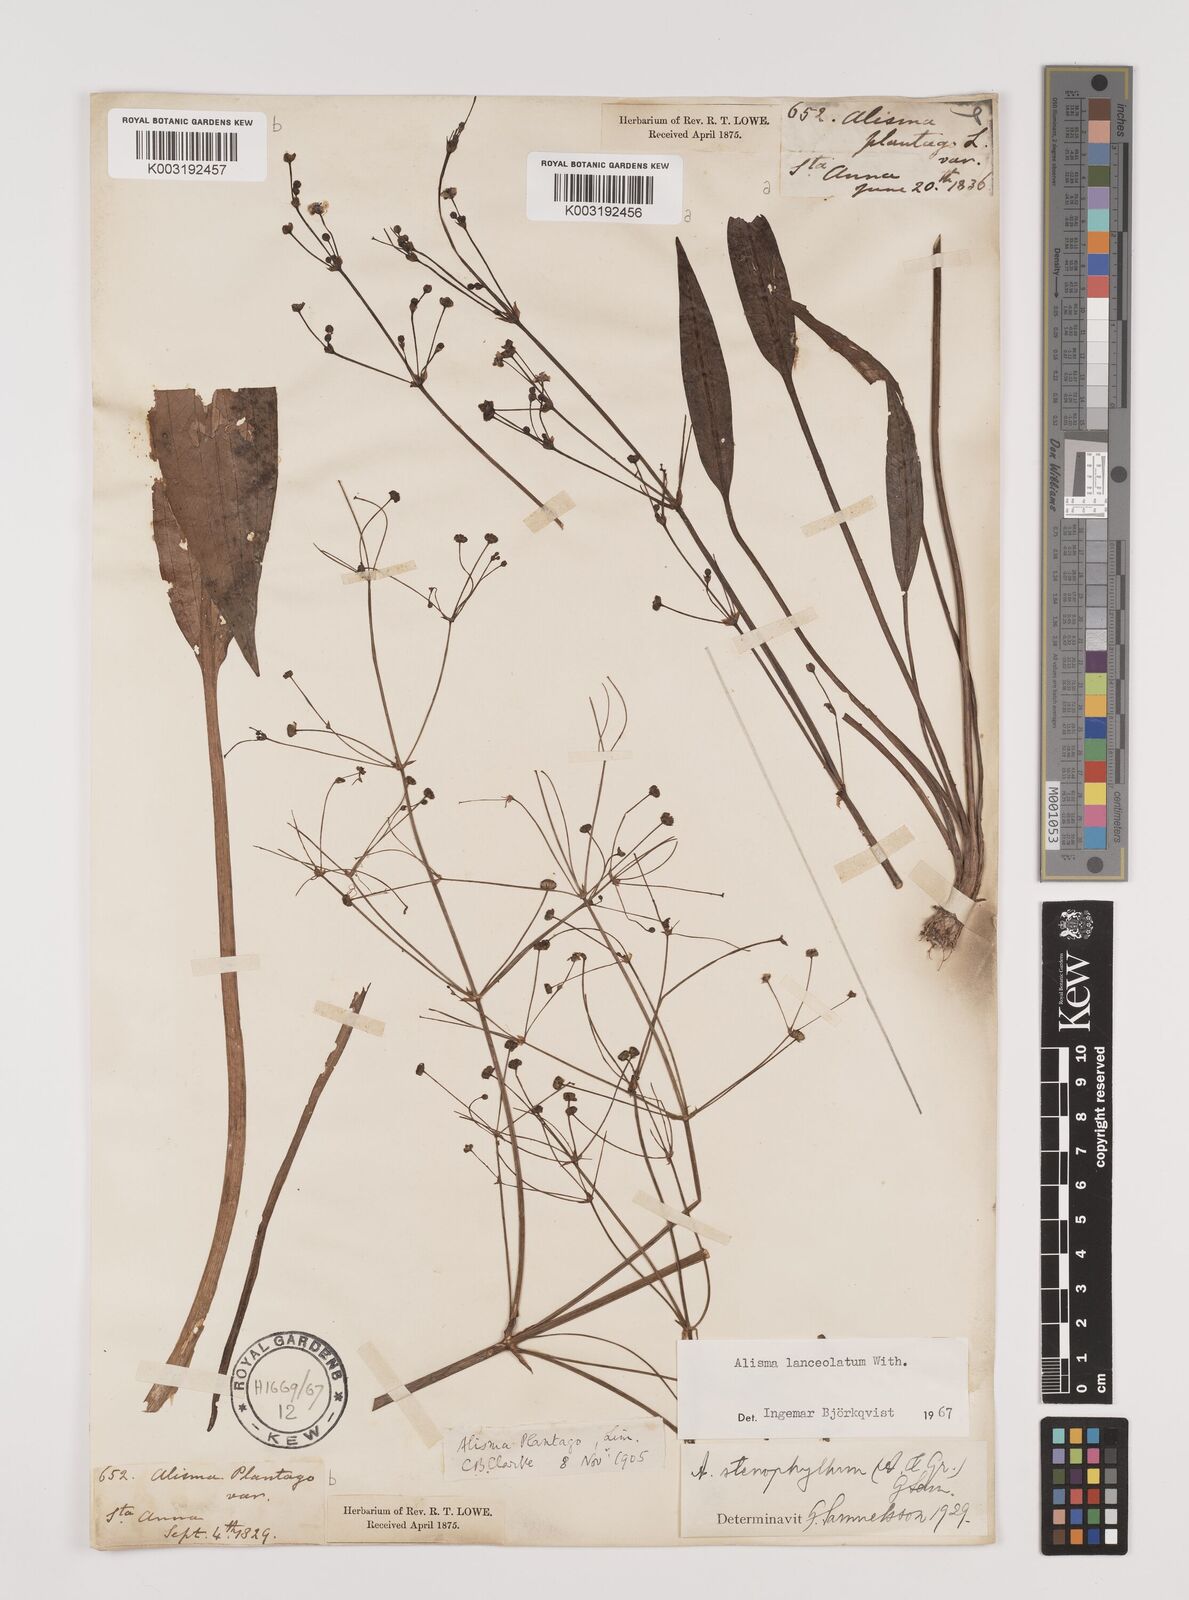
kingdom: Plantae
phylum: Tracheophyta
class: Liliopsida
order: Alismatales
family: Alismataceae
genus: Alisma
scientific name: Alisma lanceolatum
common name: Narrow-leaved water-plantain
